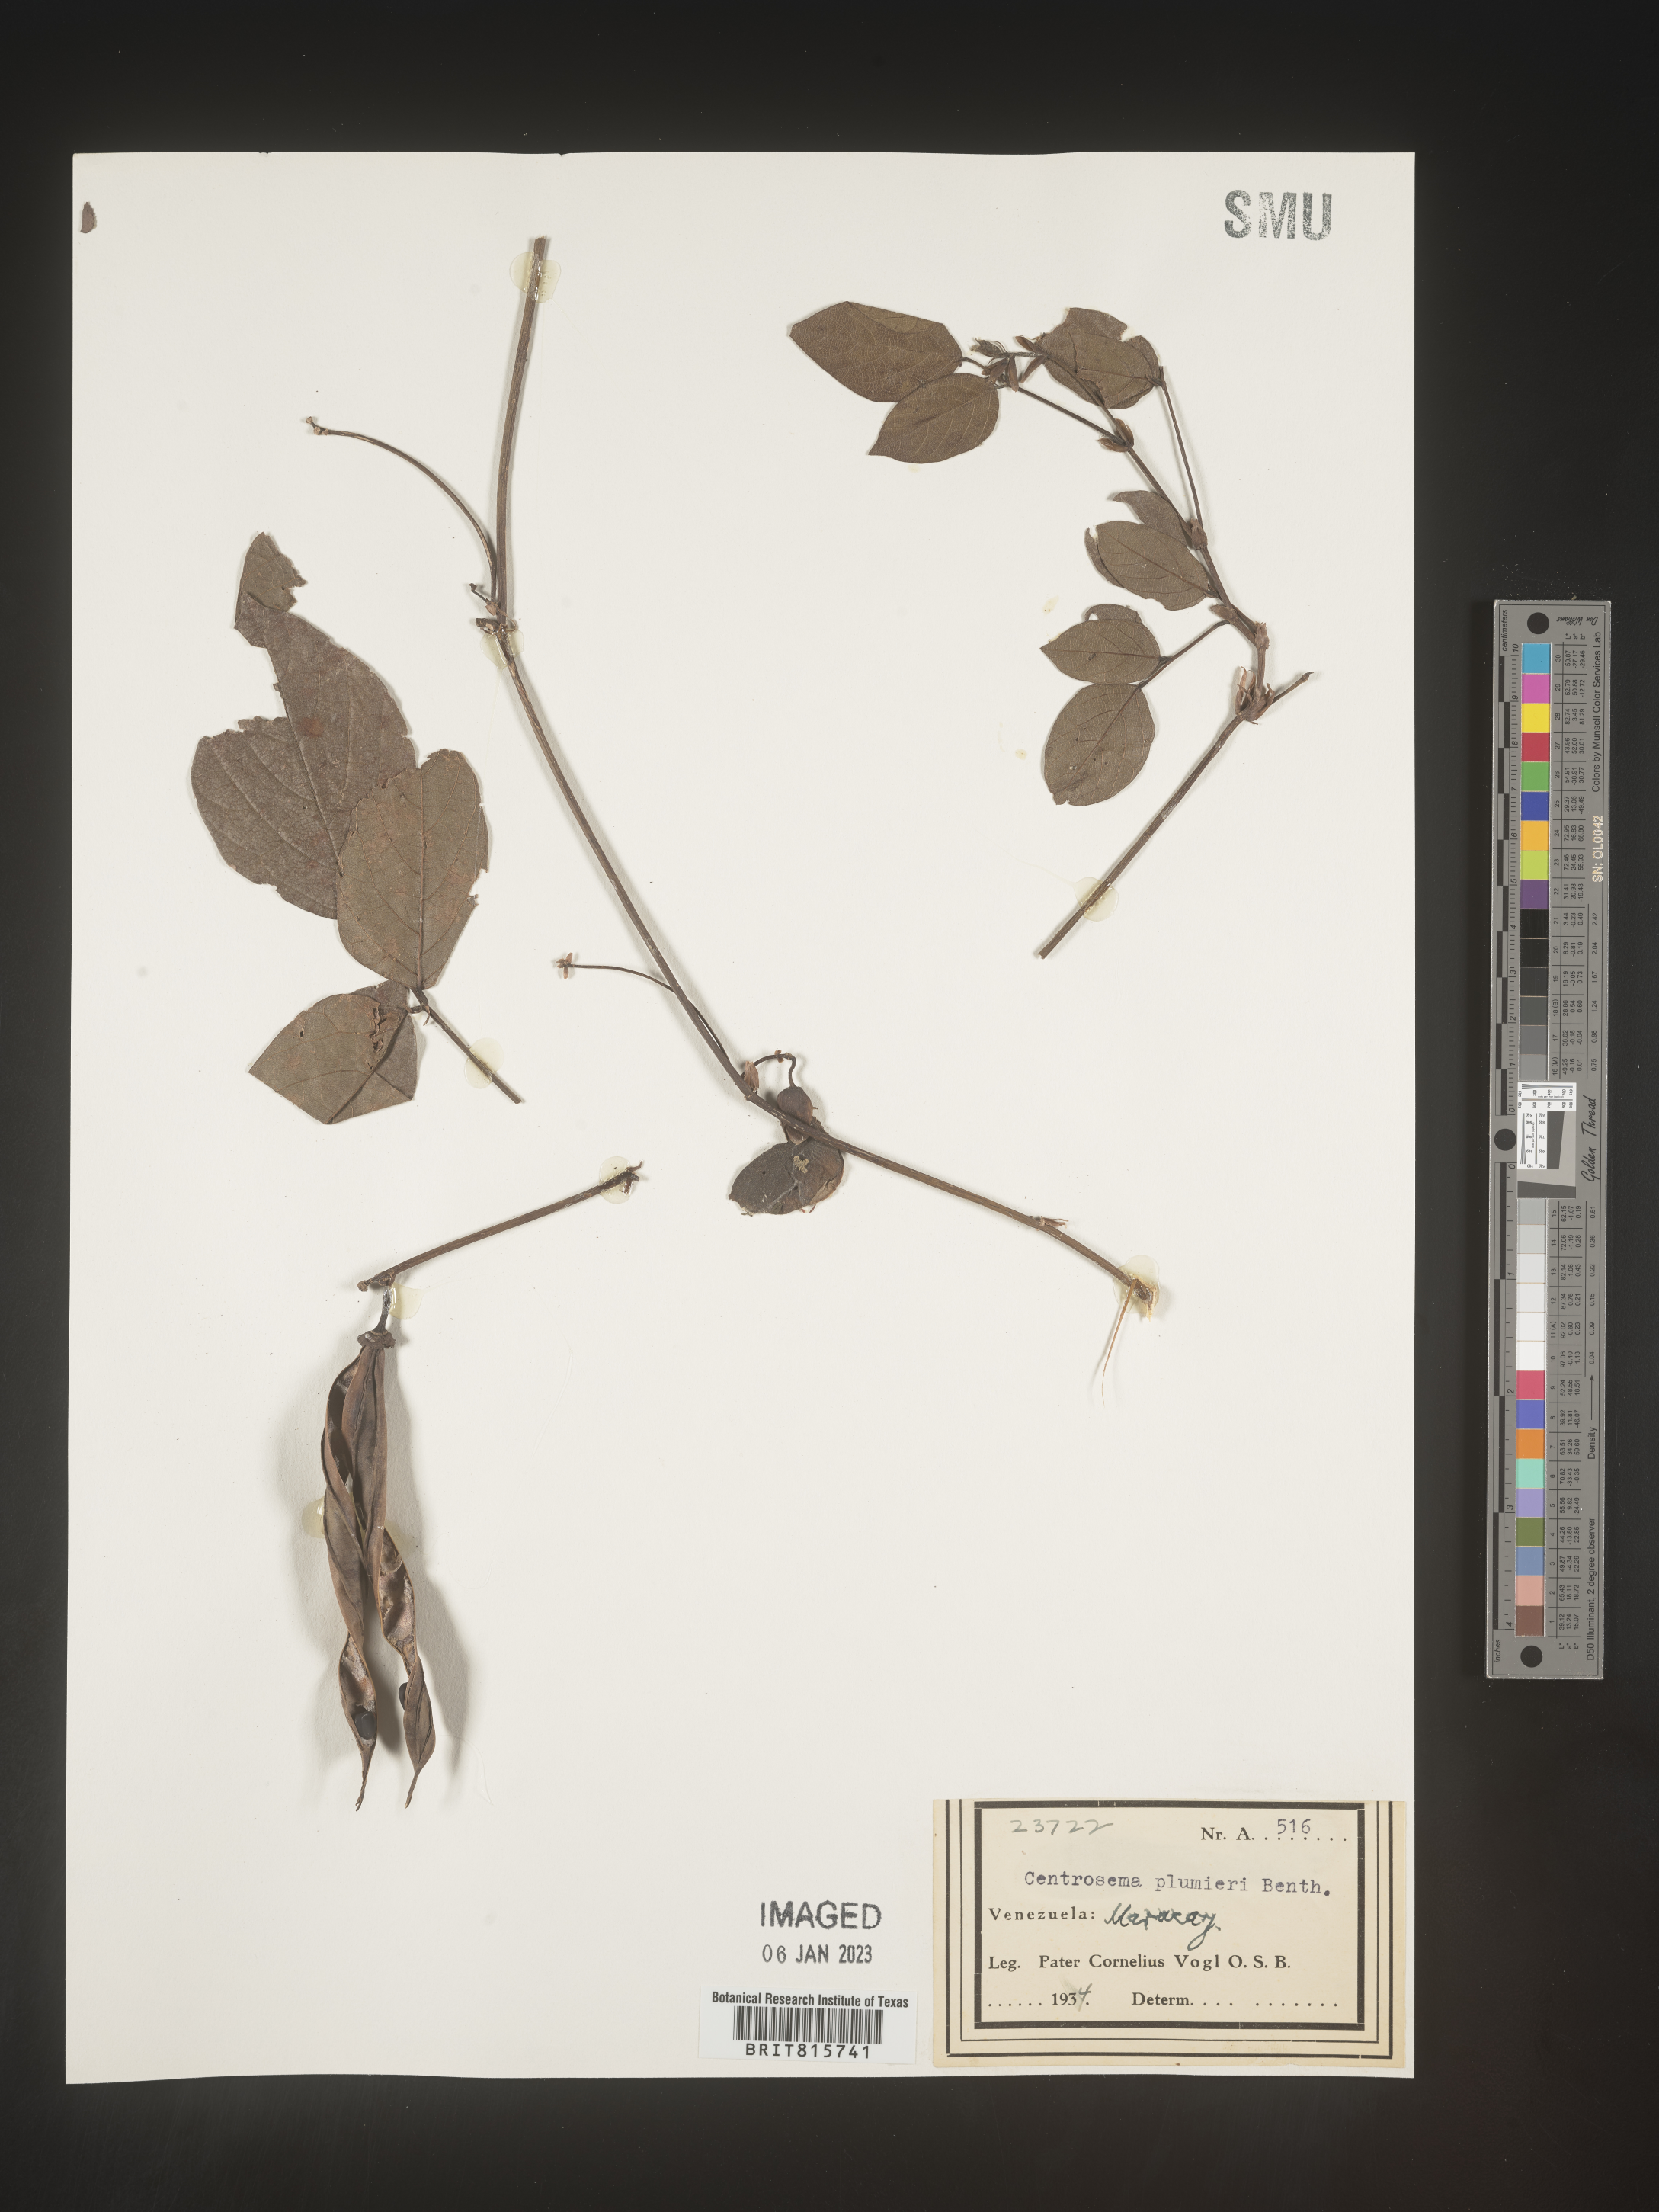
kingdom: Plantae
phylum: Tracheophyta
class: Magnoliopsida
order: Fabales
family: Fabaceae
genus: Centrosema
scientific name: Centrosema
